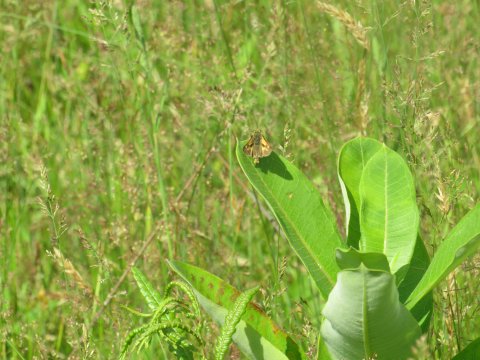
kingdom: Animalia
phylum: Arthropoda
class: Insecta
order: Lepidoptera
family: Hesperiidae
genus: Polites
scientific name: Polites
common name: Long Dash Skipper
